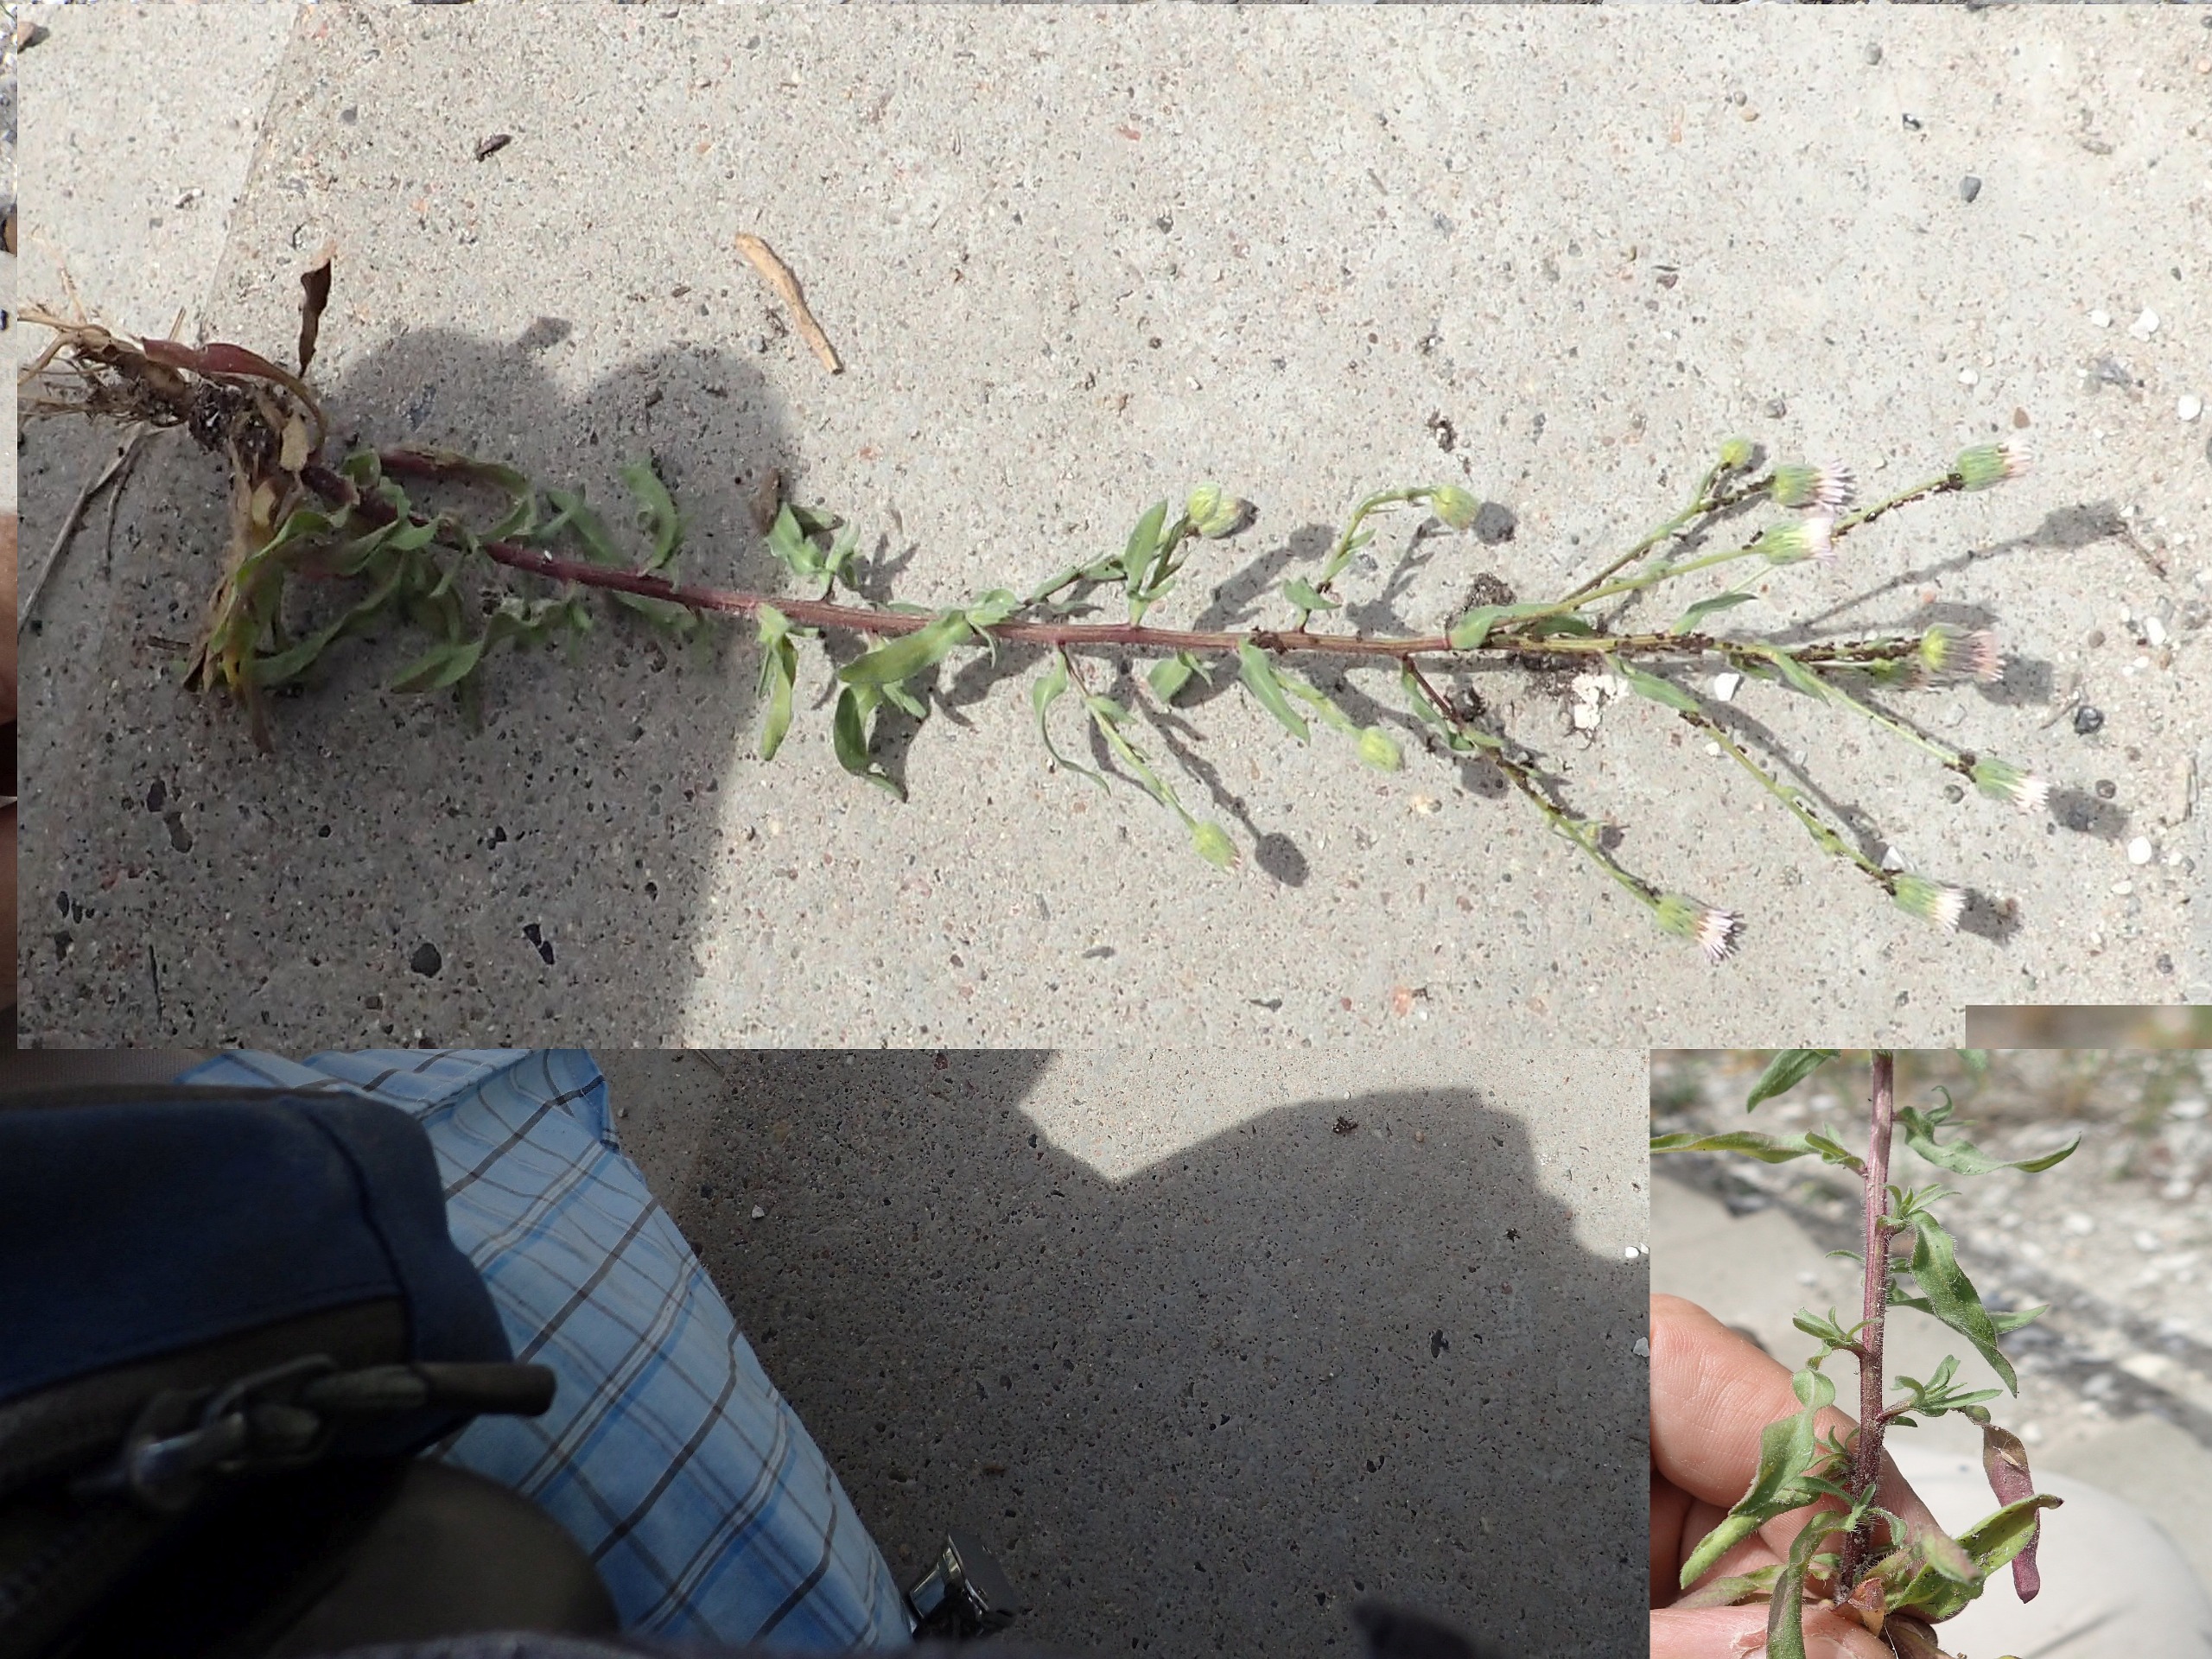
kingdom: Plantae
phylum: Tracheophyta
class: Magnoliopsida
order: Asterales
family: Asteraceae
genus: Erigeron
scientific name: Erigeron muralis
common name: Vreden bakkestjerne
